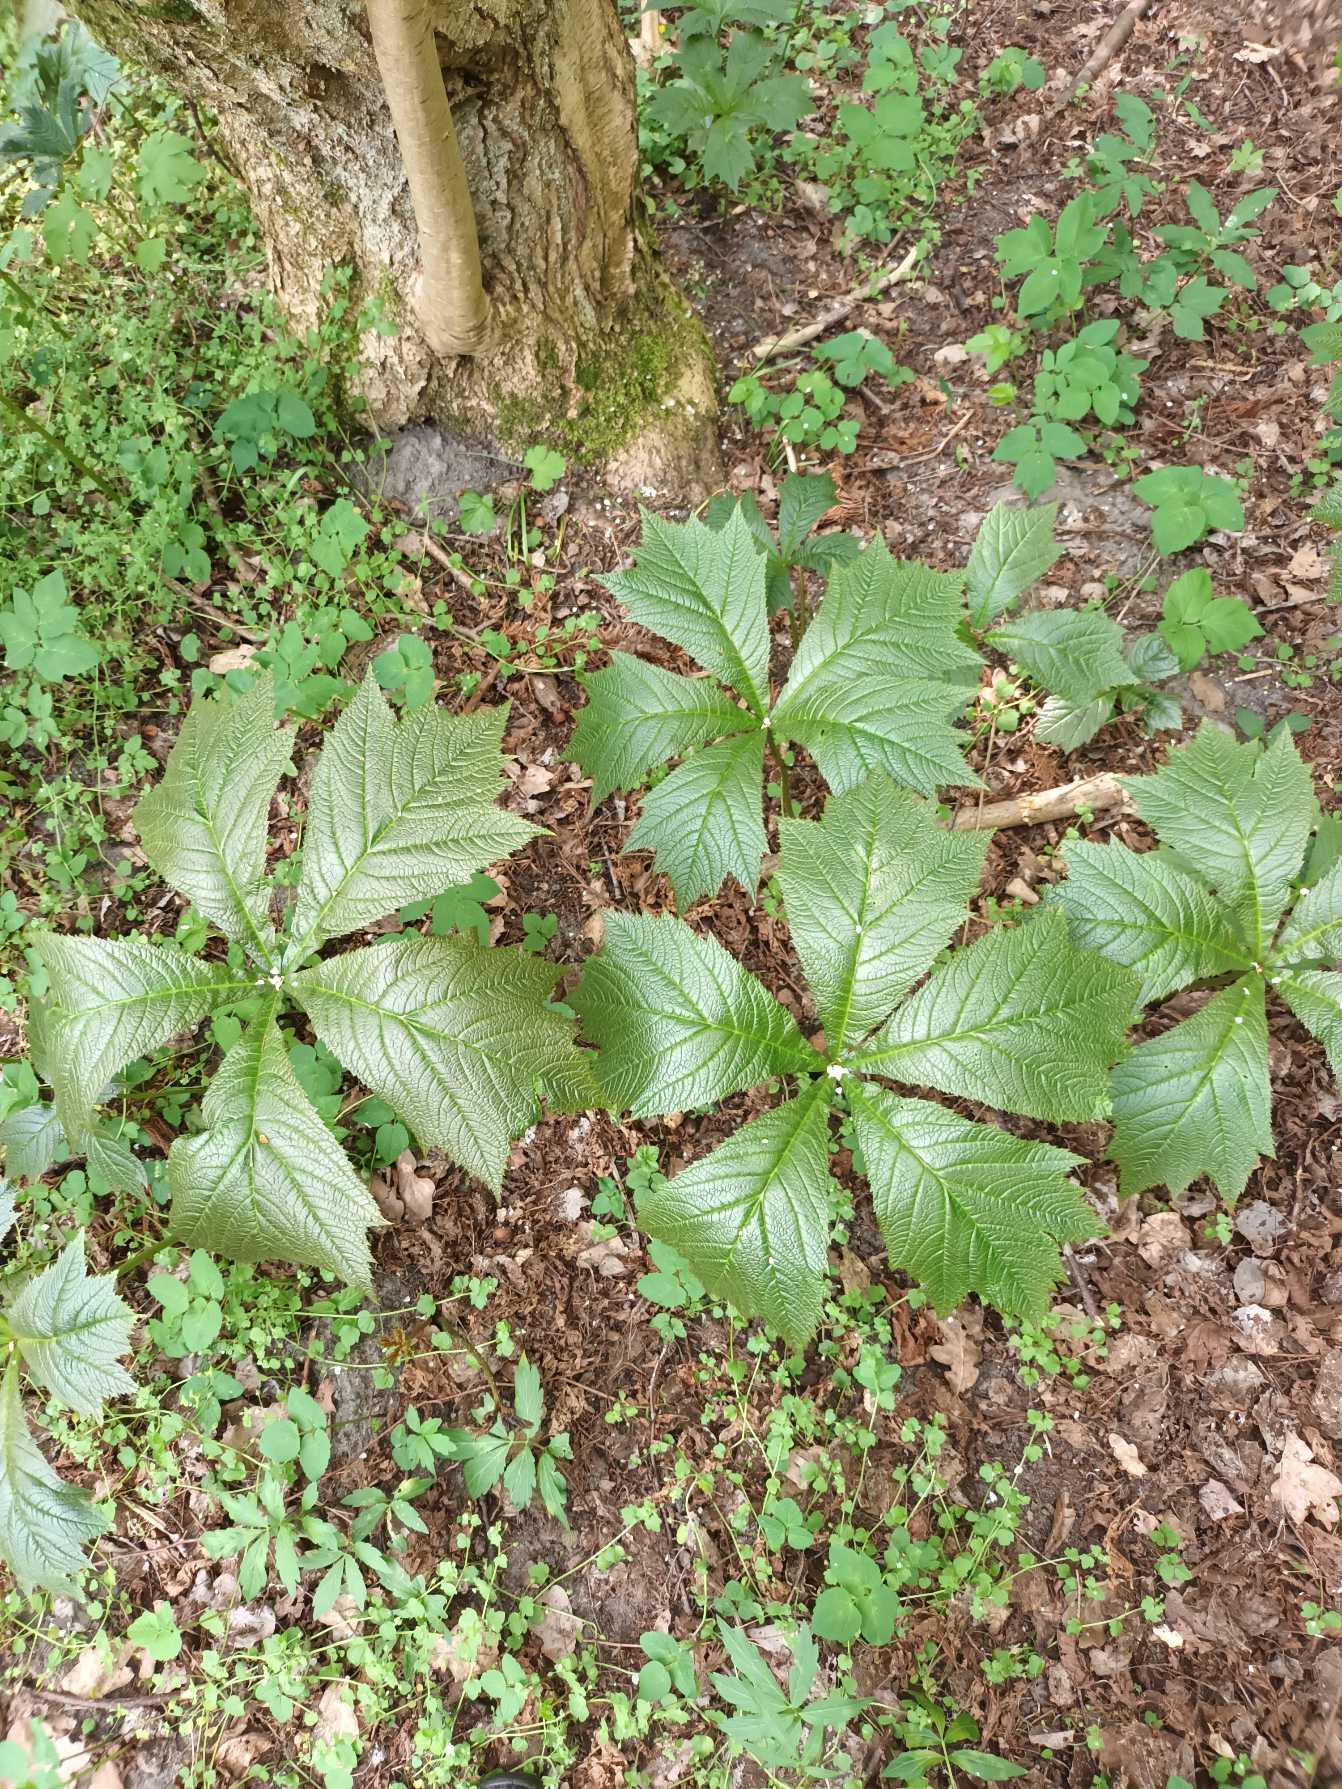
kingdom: Plantae
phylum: Tracheophyta
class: Magnoliopsida
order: Saxifragales
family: Saxifragaceae
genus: Rodgersia
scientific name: Rodgersia podophylla
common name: Stilket bronzeblad
